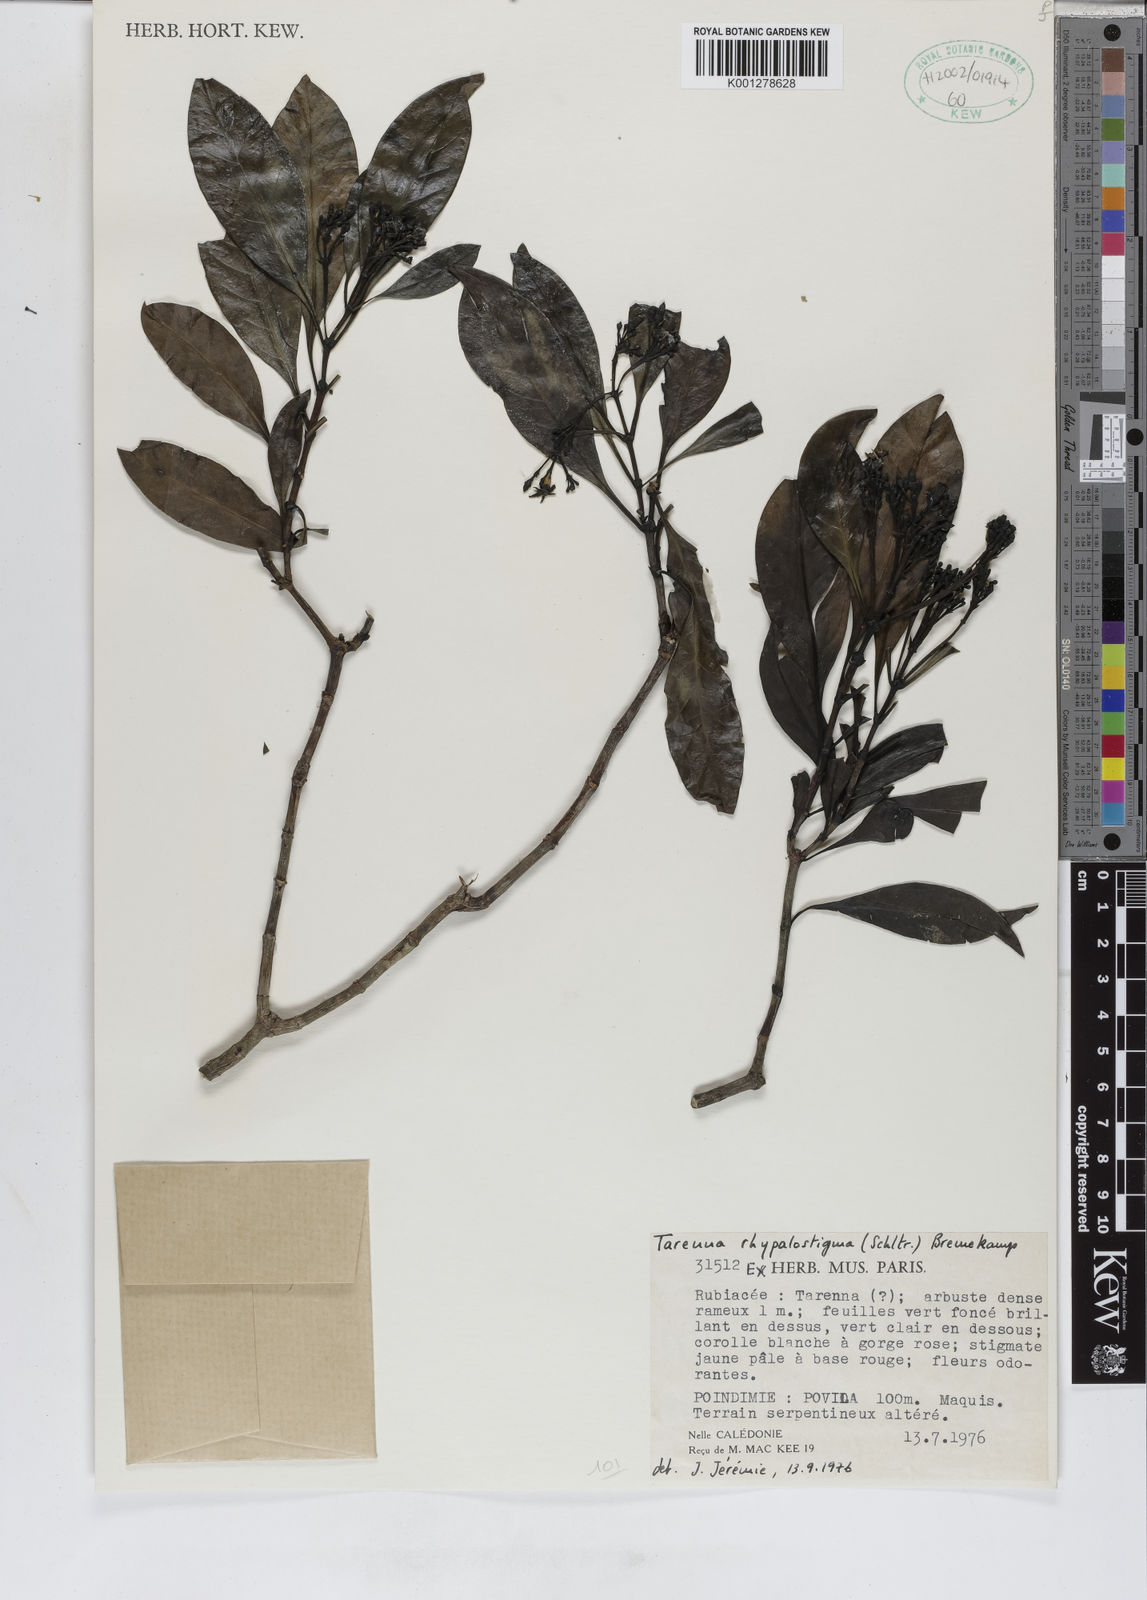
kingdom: Plantae
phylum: Tracheophyta
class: Magnoliopsida
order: Gentianales
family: Rubiaceae
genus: Tarenna
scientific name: Tarenna rhypalostigma
